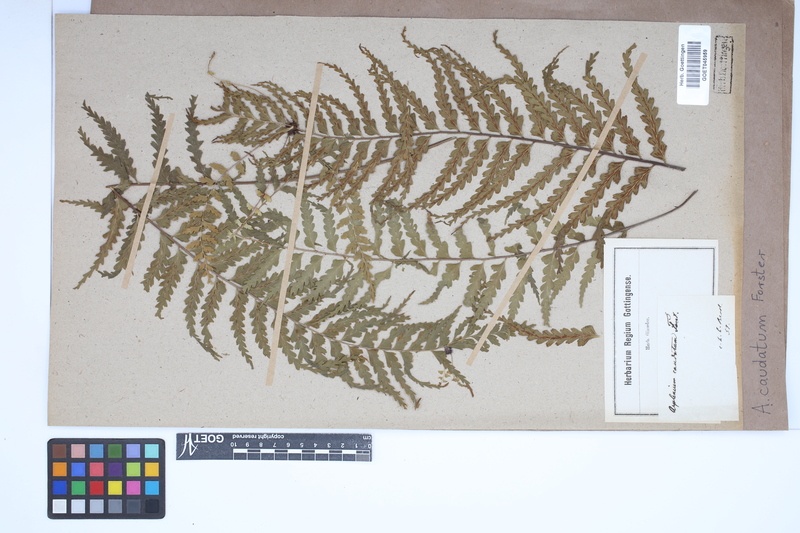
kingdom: Plantae
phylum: Tracheophyta
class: Polypodiopsida
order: Polypodiales
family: Aspleniaceae
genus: Asplenium
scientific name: Asplenium caudatum
